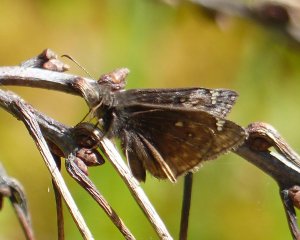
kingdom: Animalia
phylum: Arthropoda
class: Insecta
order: Lepidoptera
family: Hesperiidae
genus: Gesta
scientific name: Gesta
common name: Juvenal's Duskywing
